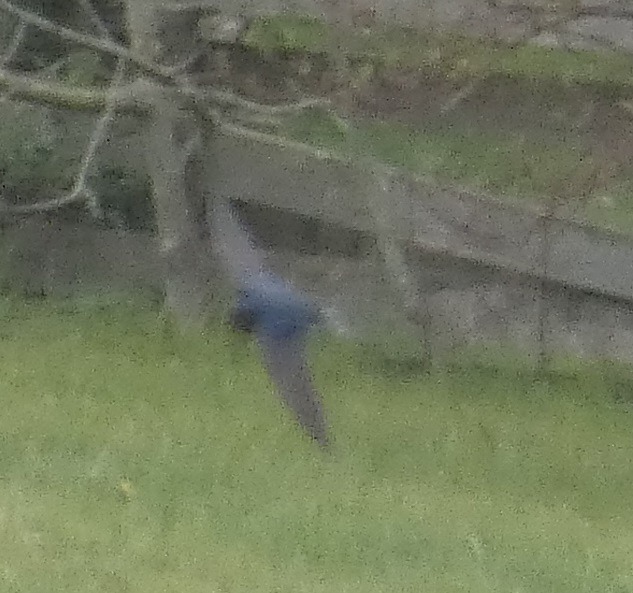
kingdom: Animalia
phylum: Chordata
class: Aves
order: Passeriformes
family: Hirundinidae
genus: Hirundo
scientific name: Hirundo rustica
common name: Landsvale
